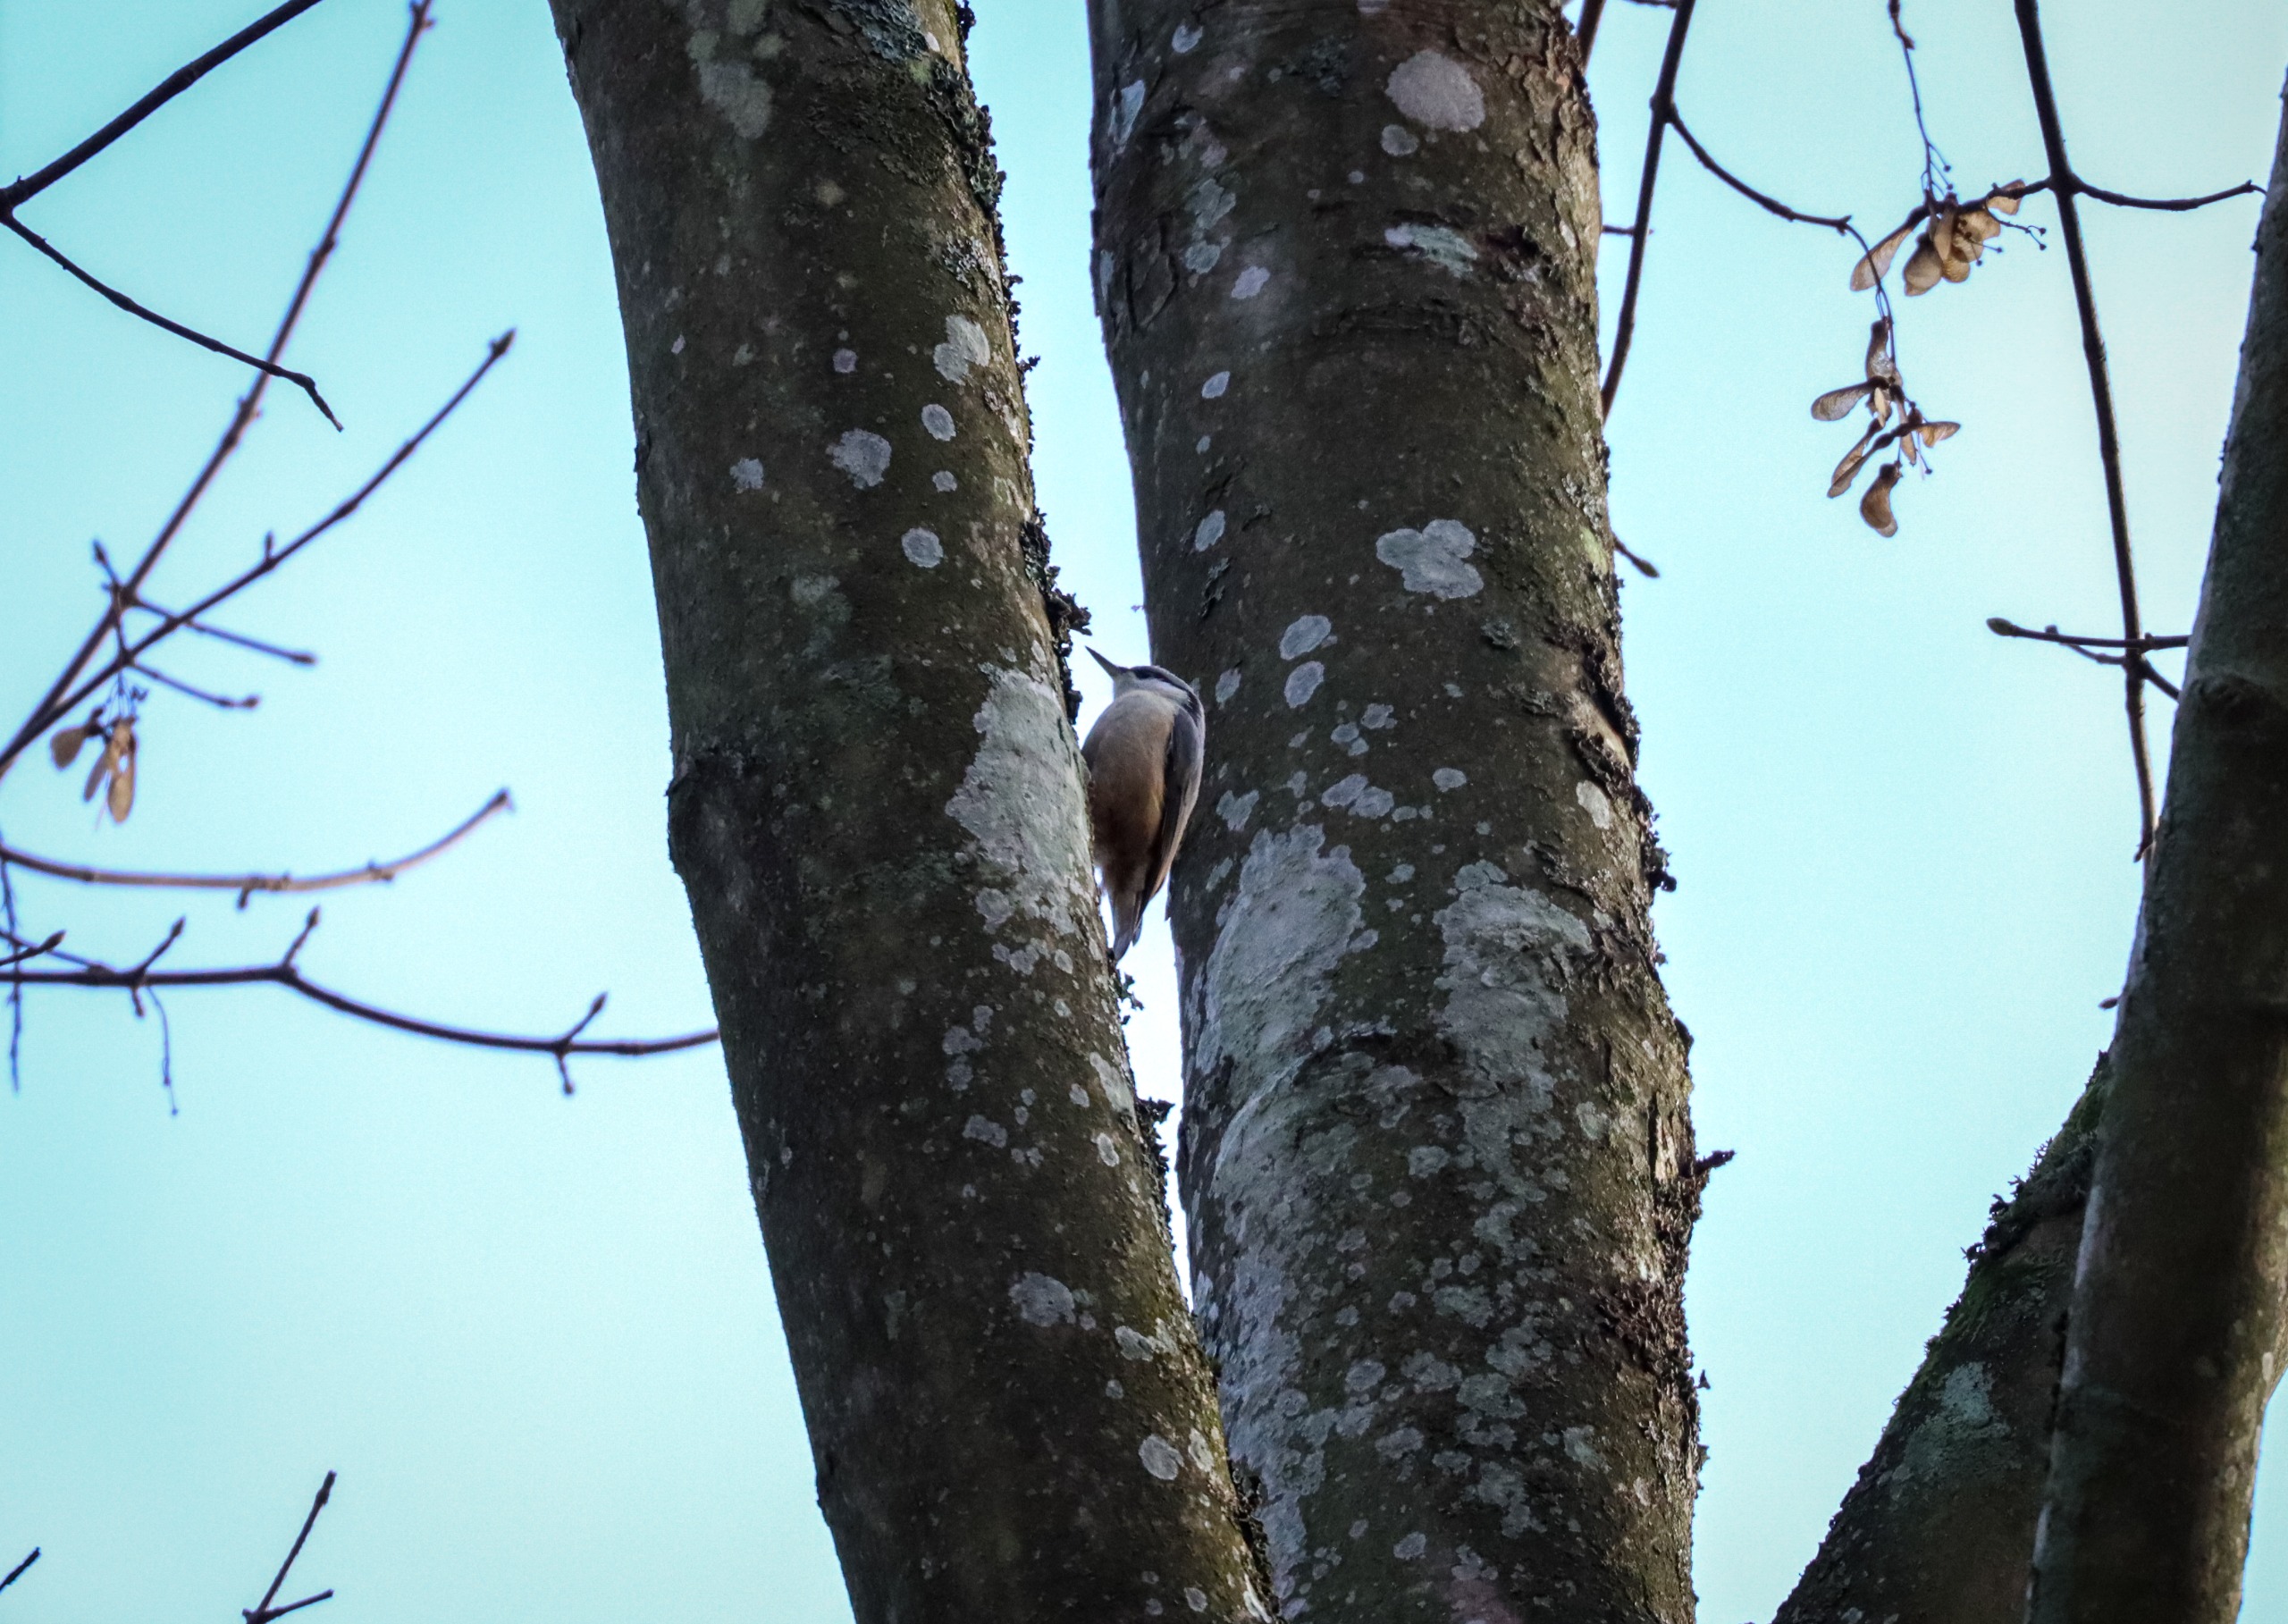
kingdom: Animalia
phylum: Chordata
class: Aves
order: Passeriformes
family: Sittidae
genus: Sitta
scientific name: Sitta europaea
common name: Spætmejse
